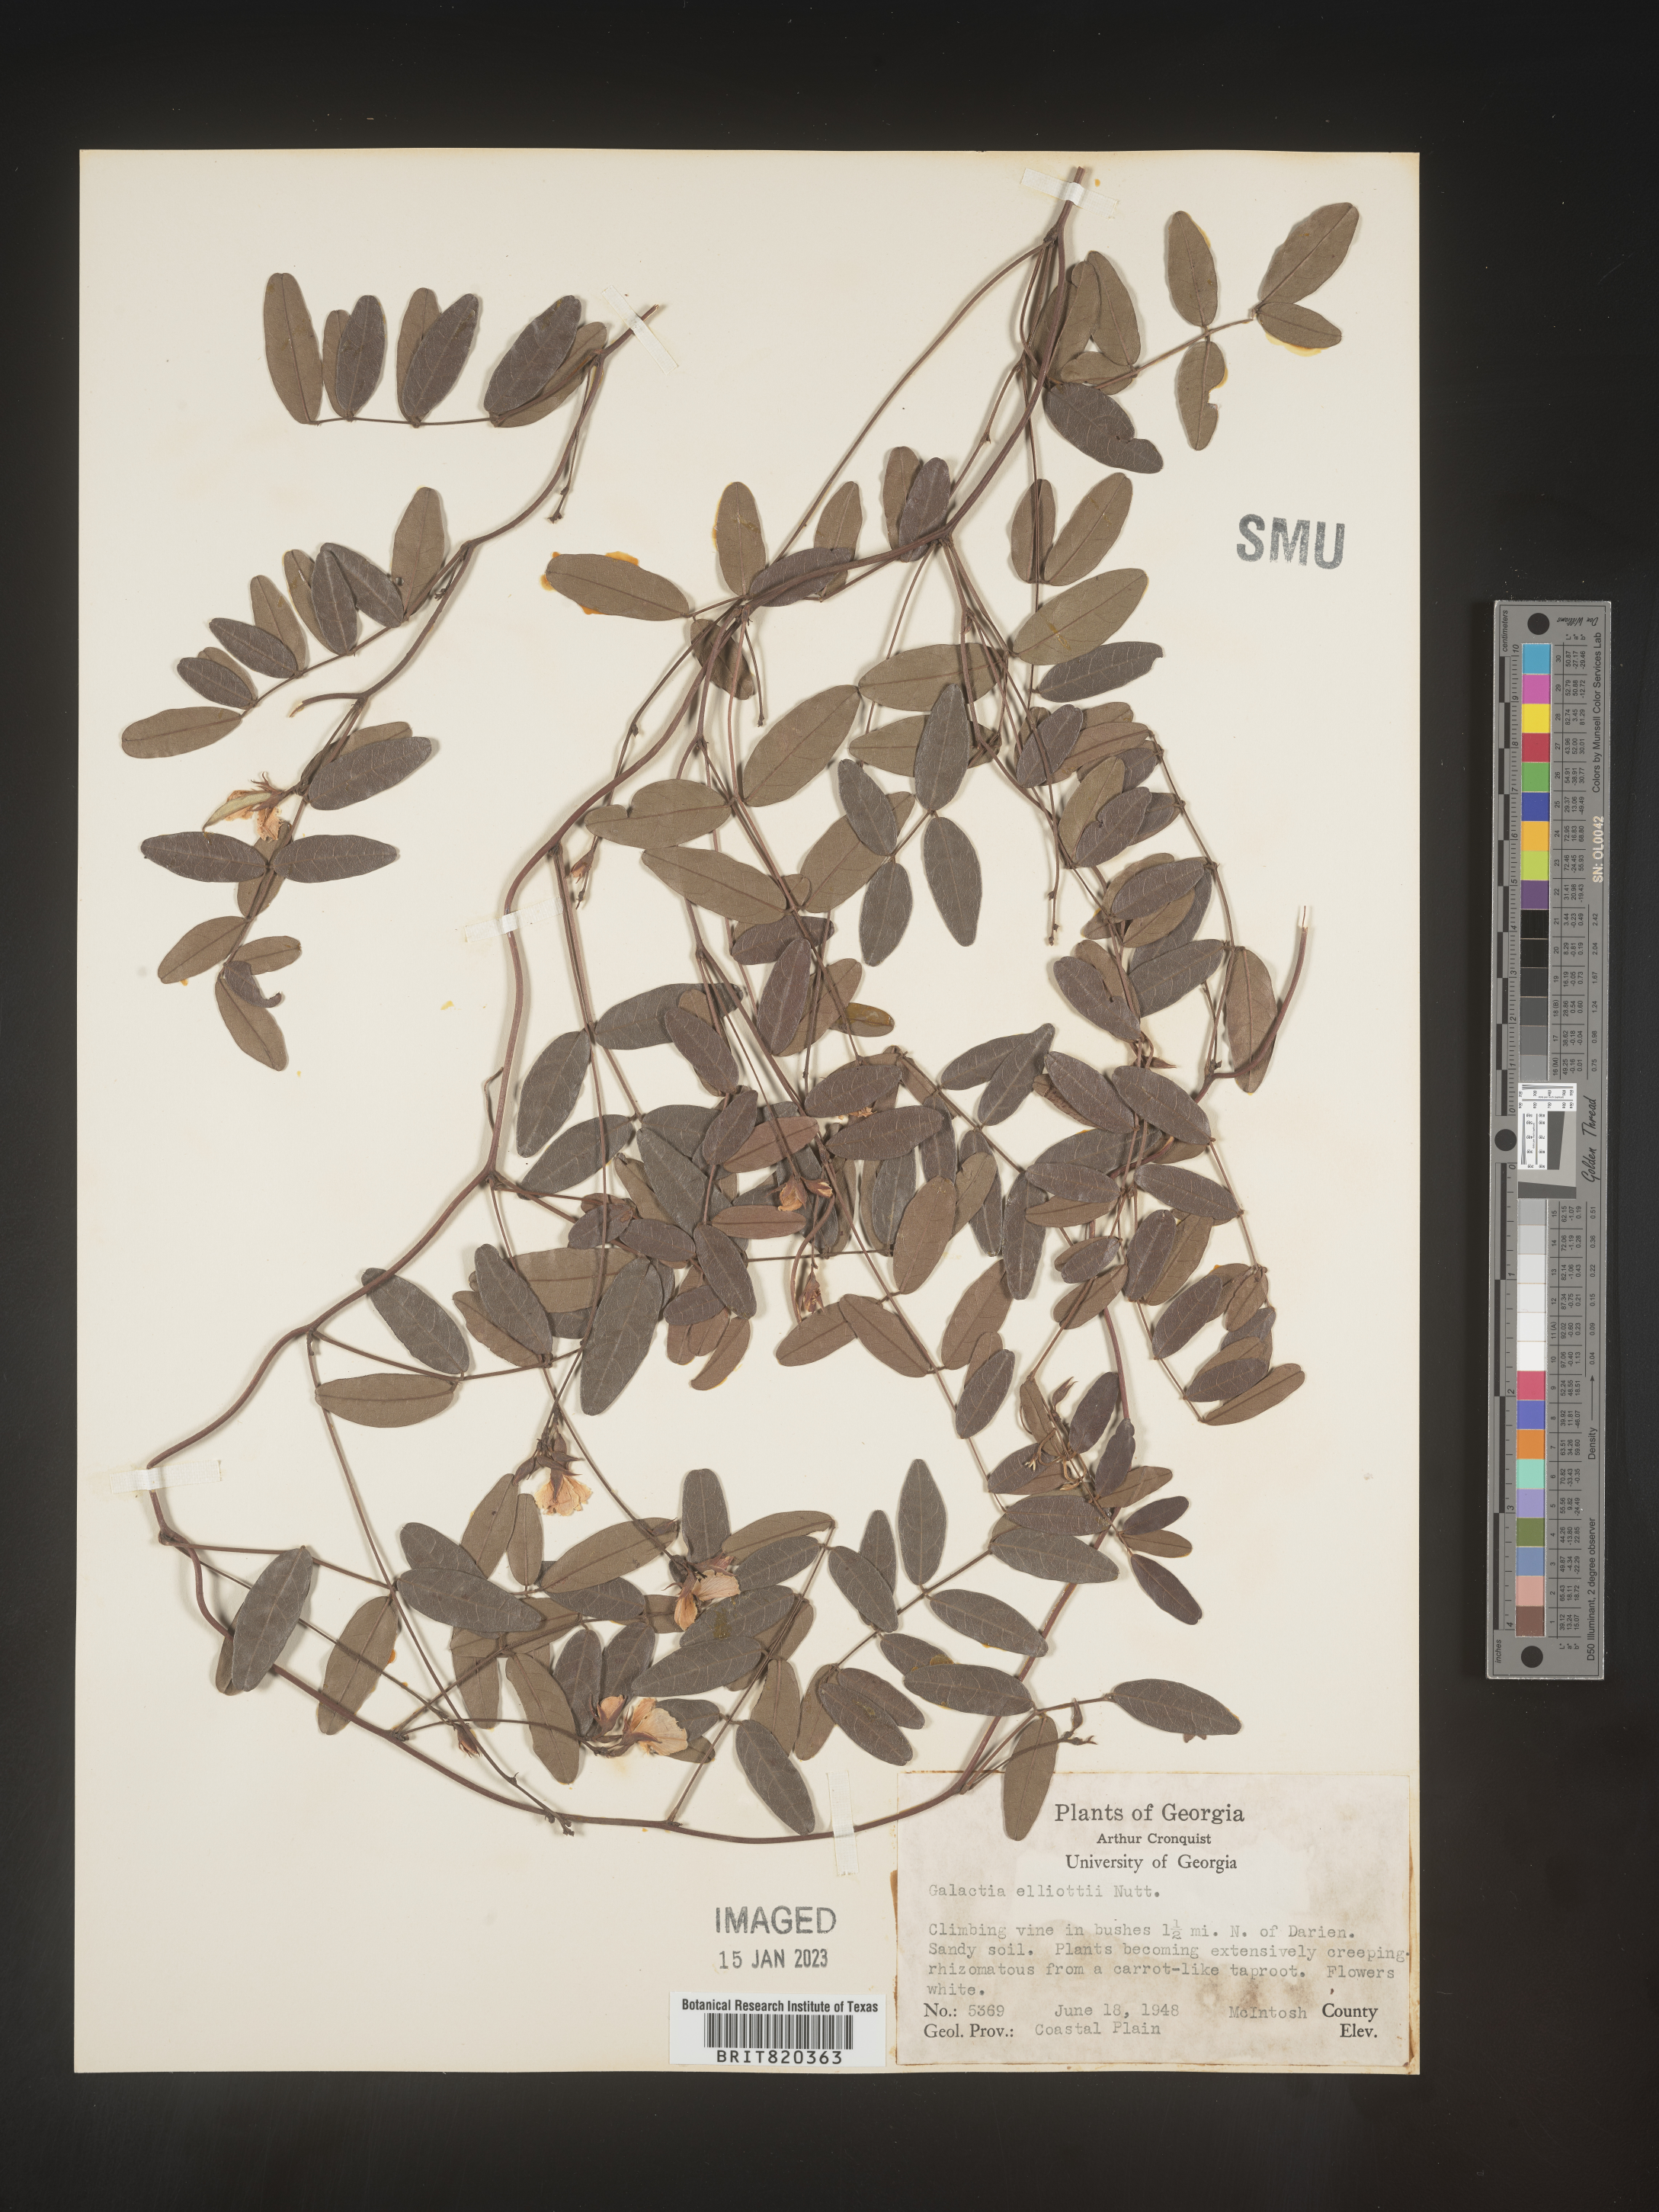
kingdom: Plantae
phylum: Tracheophyta
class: Magnoliopsida
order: Fabales
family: Fabaceae
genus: Galactia
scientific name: Galactia elliottii
